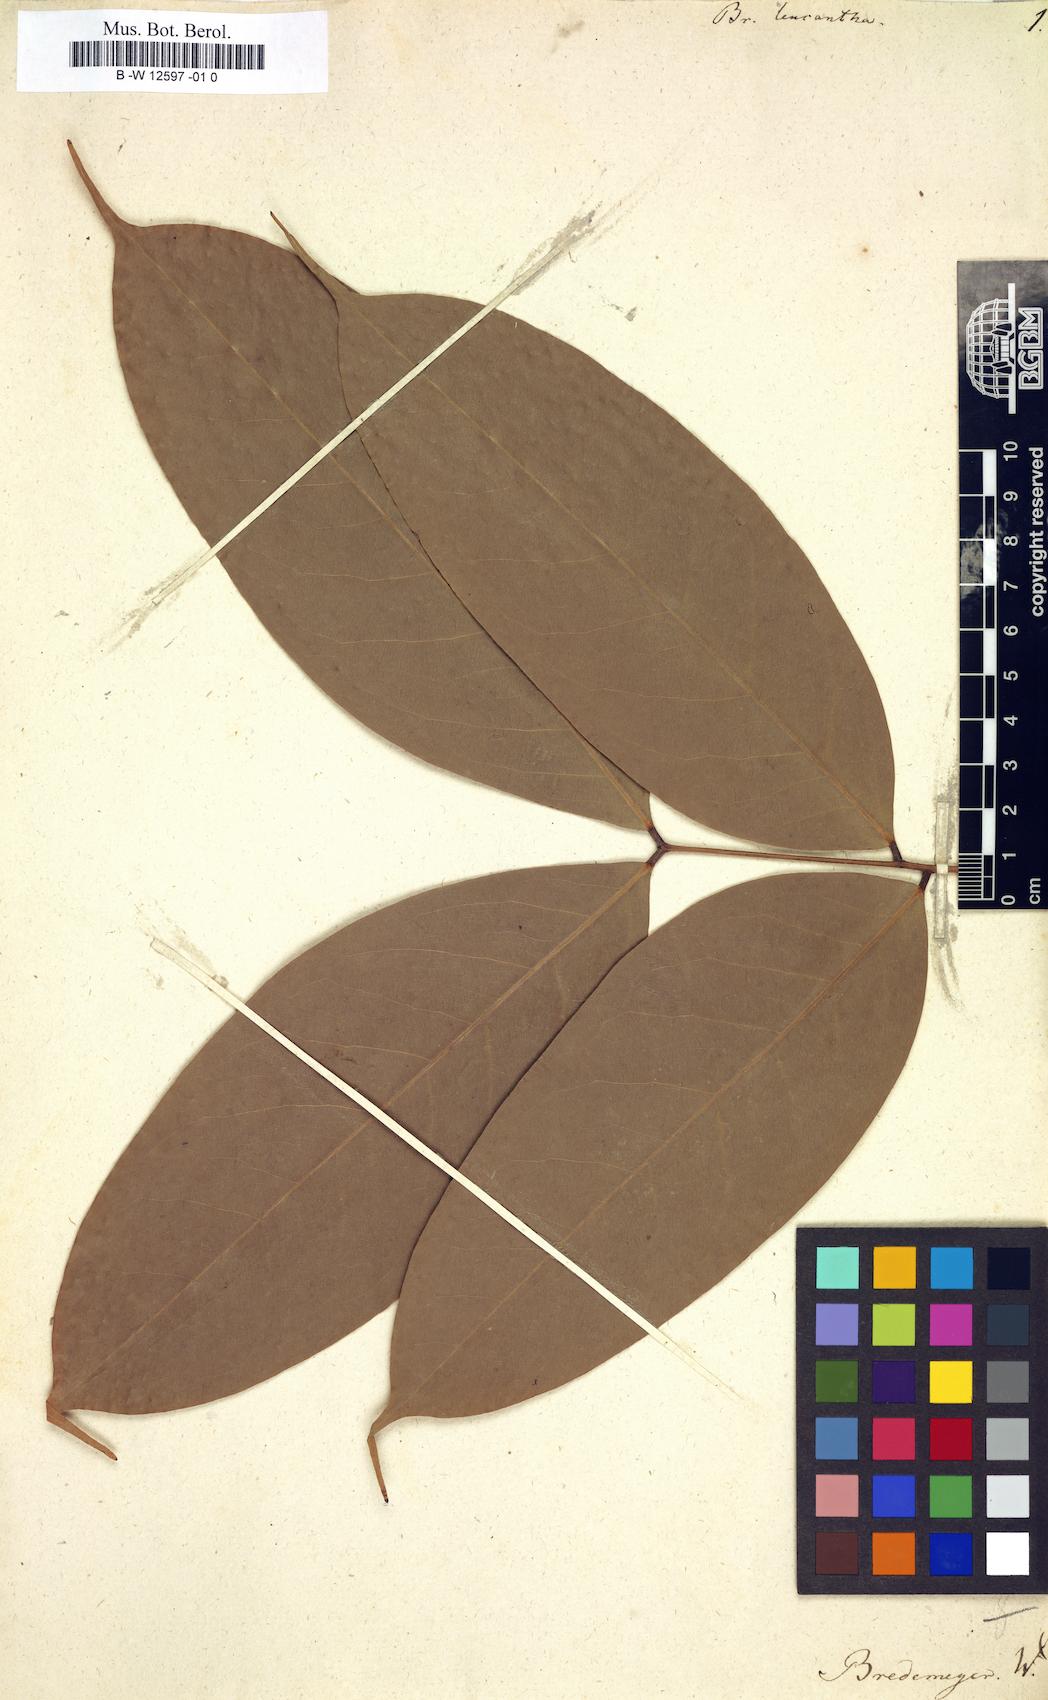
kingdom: Plantae
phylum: Tracheophyta
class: Magnoliopsida
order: Fabales
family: Fabaceae
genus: Brownea
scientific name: Brownea leucantha
